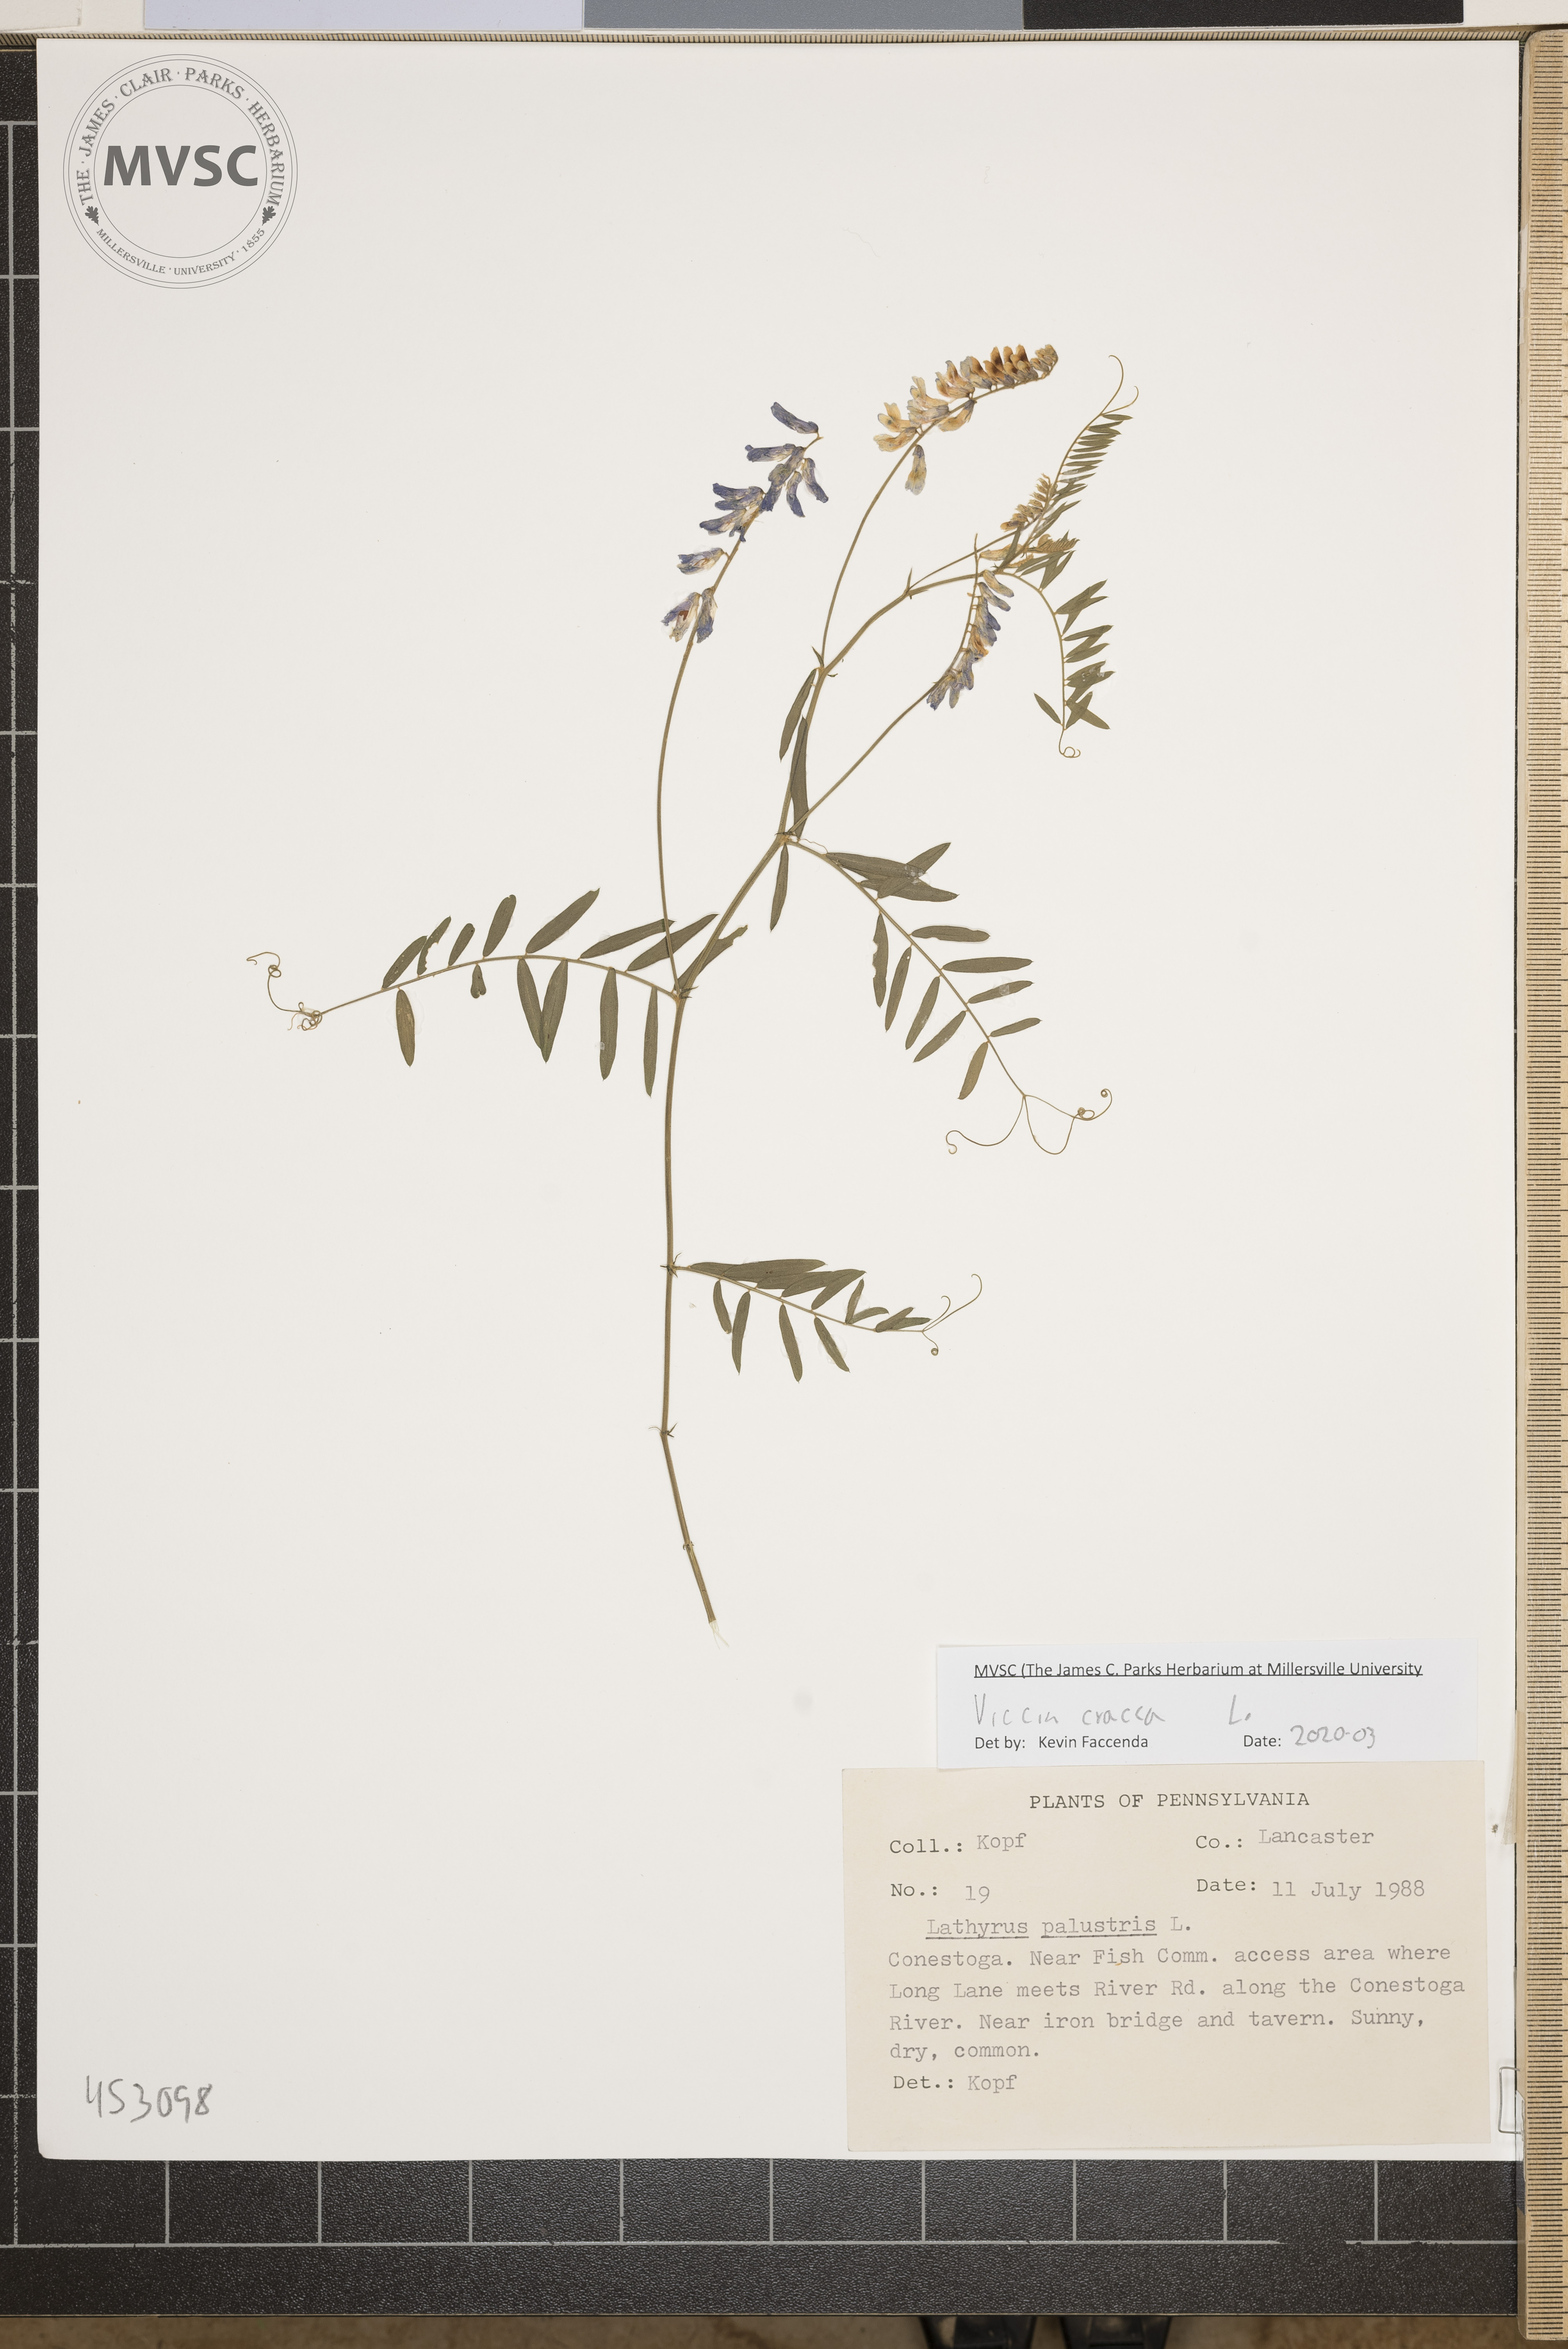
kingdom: Plantae
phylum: Tracheophyta
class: Magnoliopsida
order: Fabales
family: Fabaceae
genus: Vicia
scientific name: Vicia cracca
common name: Bird vetch
